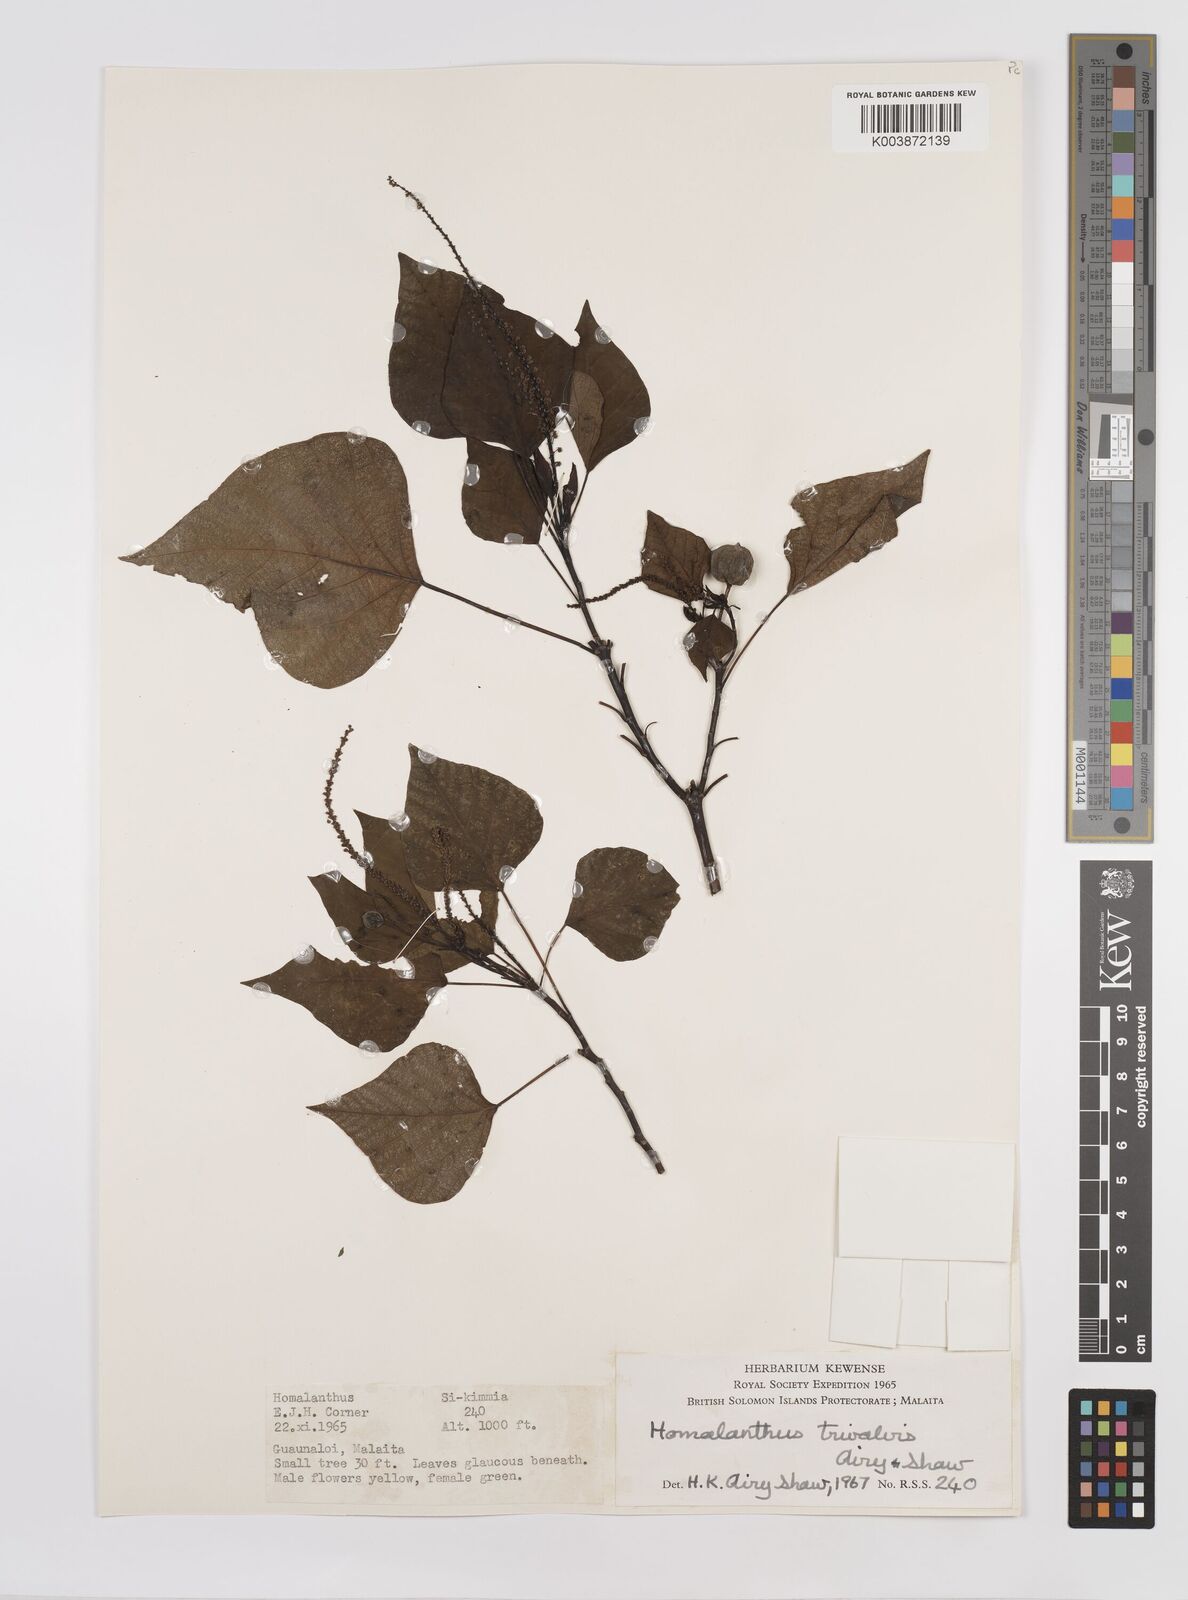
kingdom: Plantae
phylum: Tracheophyta
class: Magnoliopsida
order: Malpighiales
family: Euphorbiaceae
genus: Homalanthus
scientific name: Homalanthus trivalvis
